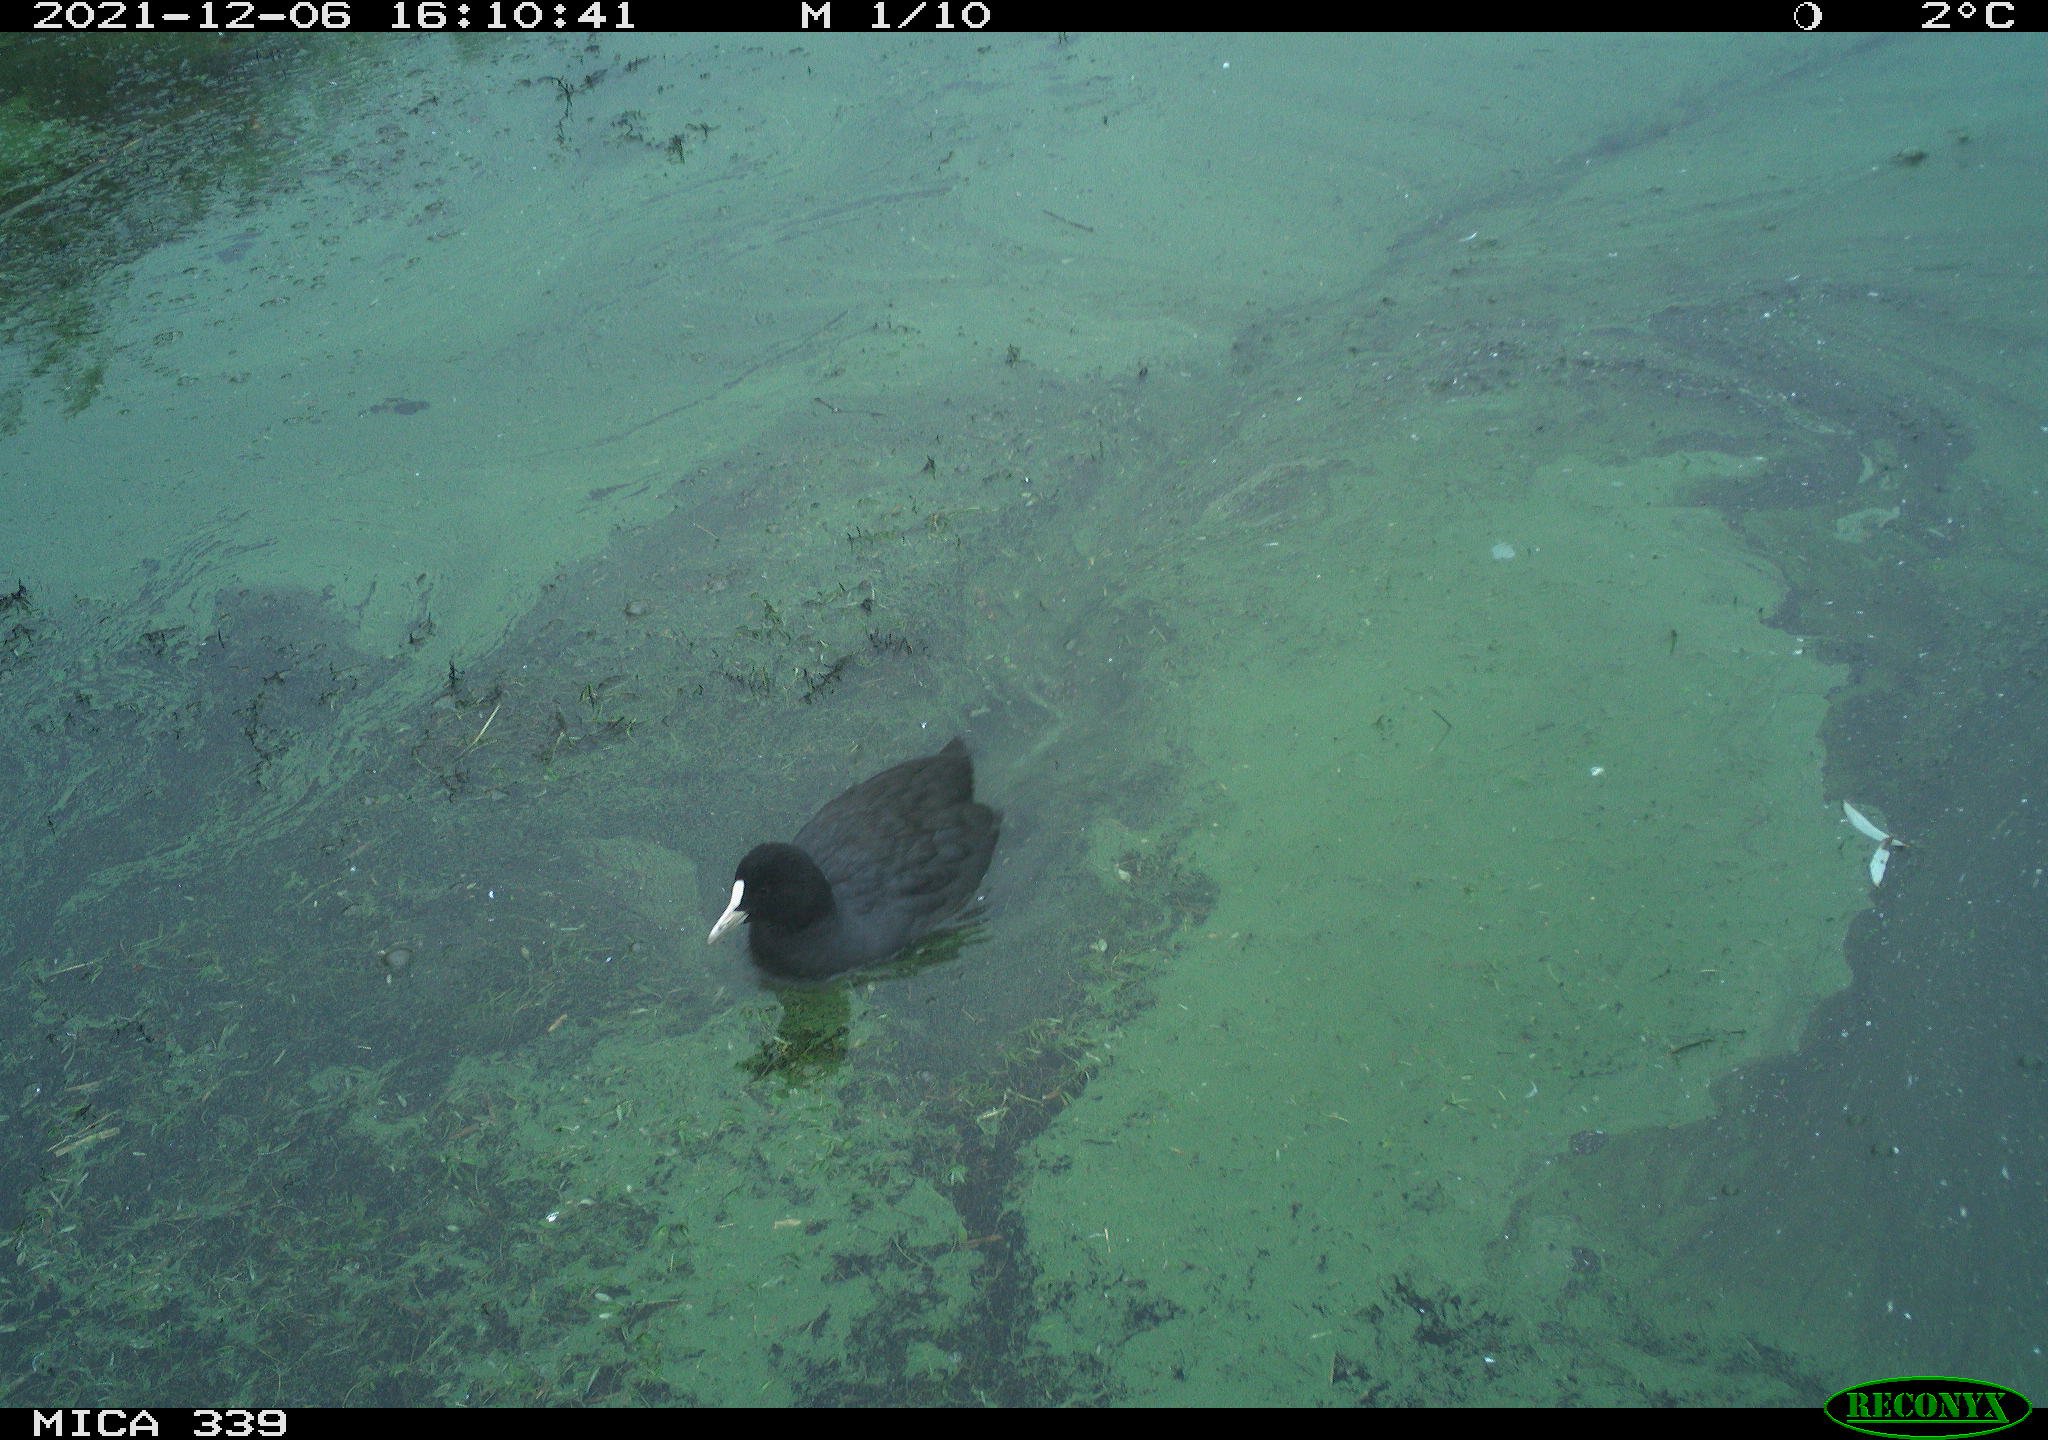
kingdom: Animalia
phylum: Chordata
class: Aves
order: Gruiformes
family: Rallidae
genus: Fulica
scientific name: Fulica atra
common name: Eurasian coot
